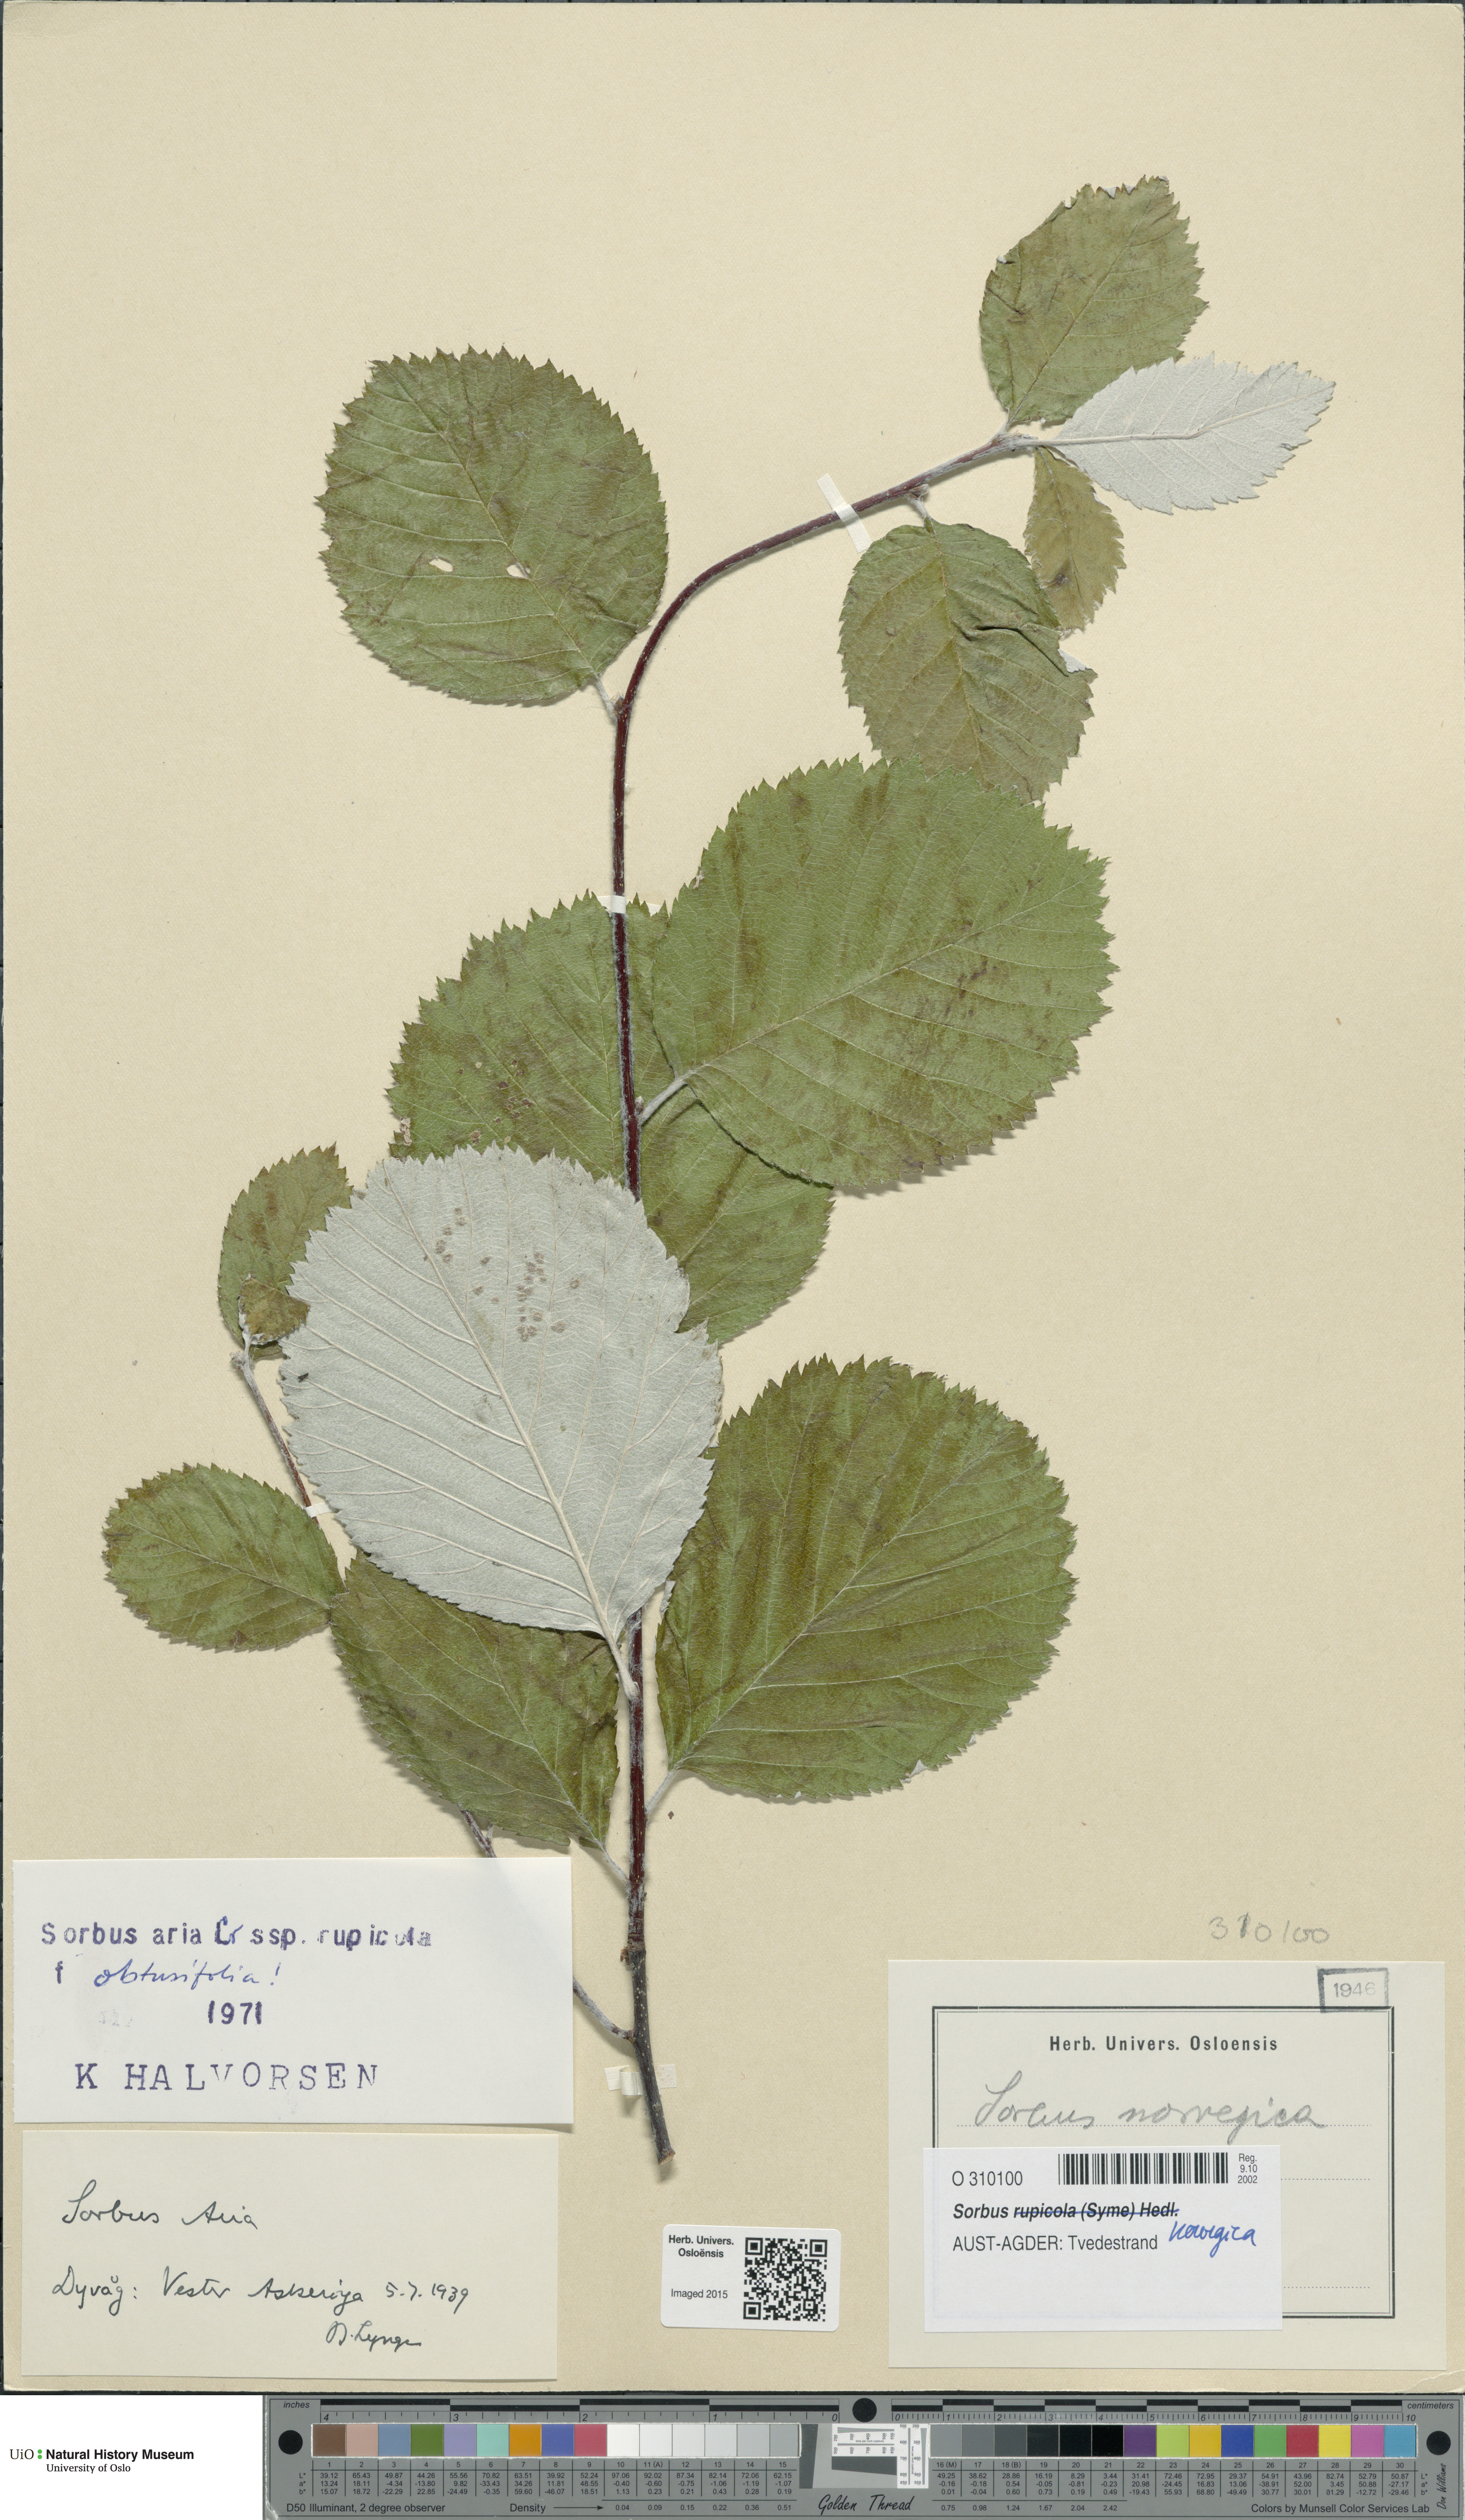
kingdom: Plantae
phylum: Tracheophyta
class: Magnoliopsida
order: Rosales
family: Rosaceae
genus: Aria
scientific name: Aria obtusifolia
